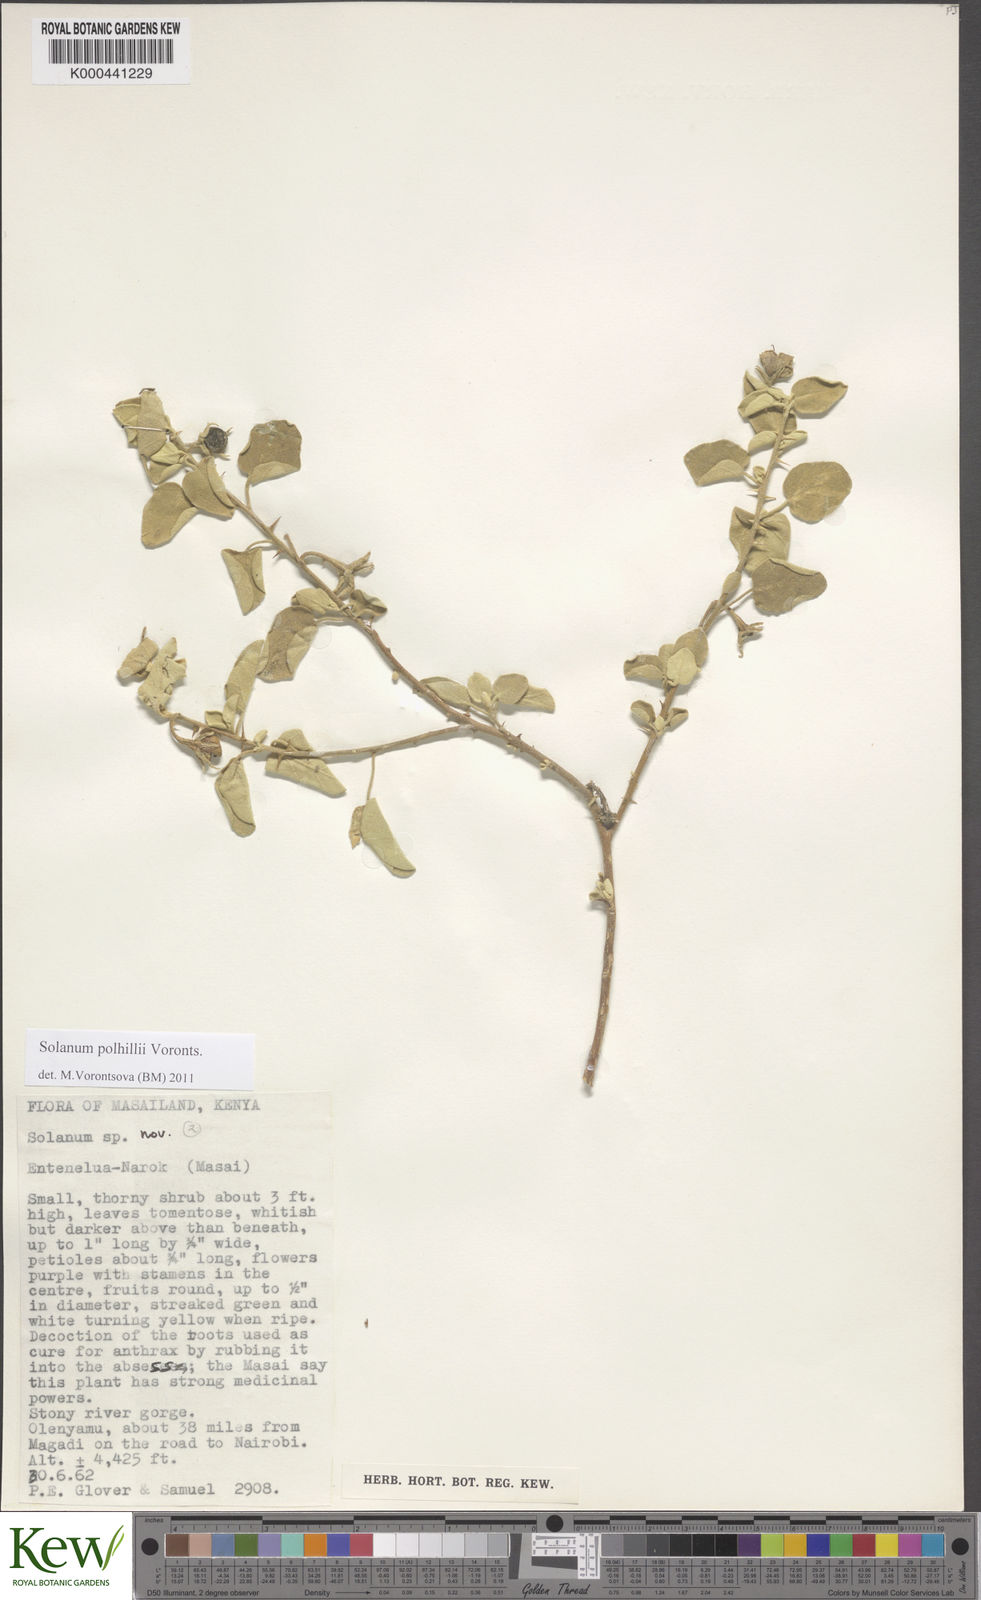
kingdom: Plantae
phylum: Tracheophyta
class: Magnoliopsida
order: Solanales
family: Solanaceae
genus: Solanum
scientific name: Solanum polhillii
